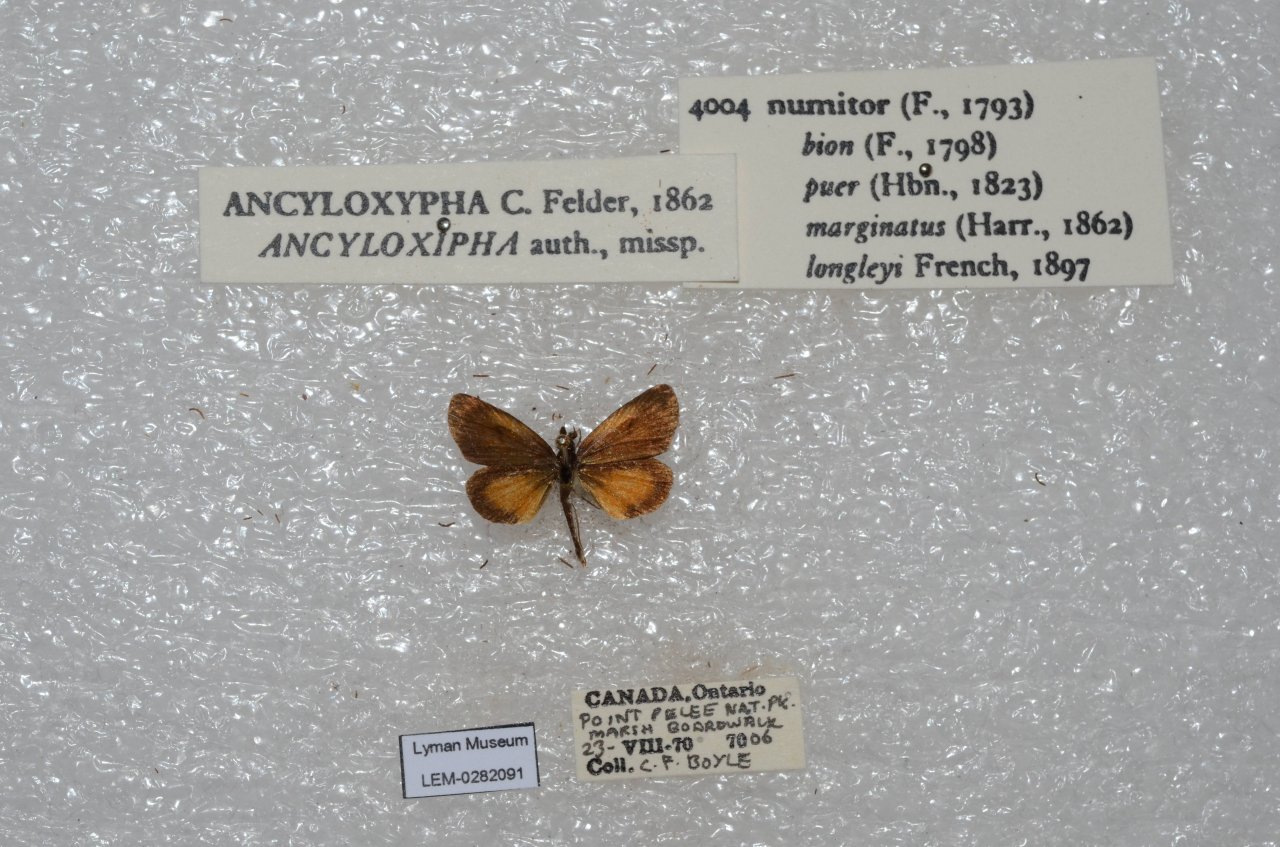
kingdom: Animalia
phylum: Arthropoda
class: Insecta
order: Lepidoptera
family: Hesperiidae
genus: Ancyloxypha
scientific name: Ancyloxypha numitor
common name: Least Skipper
